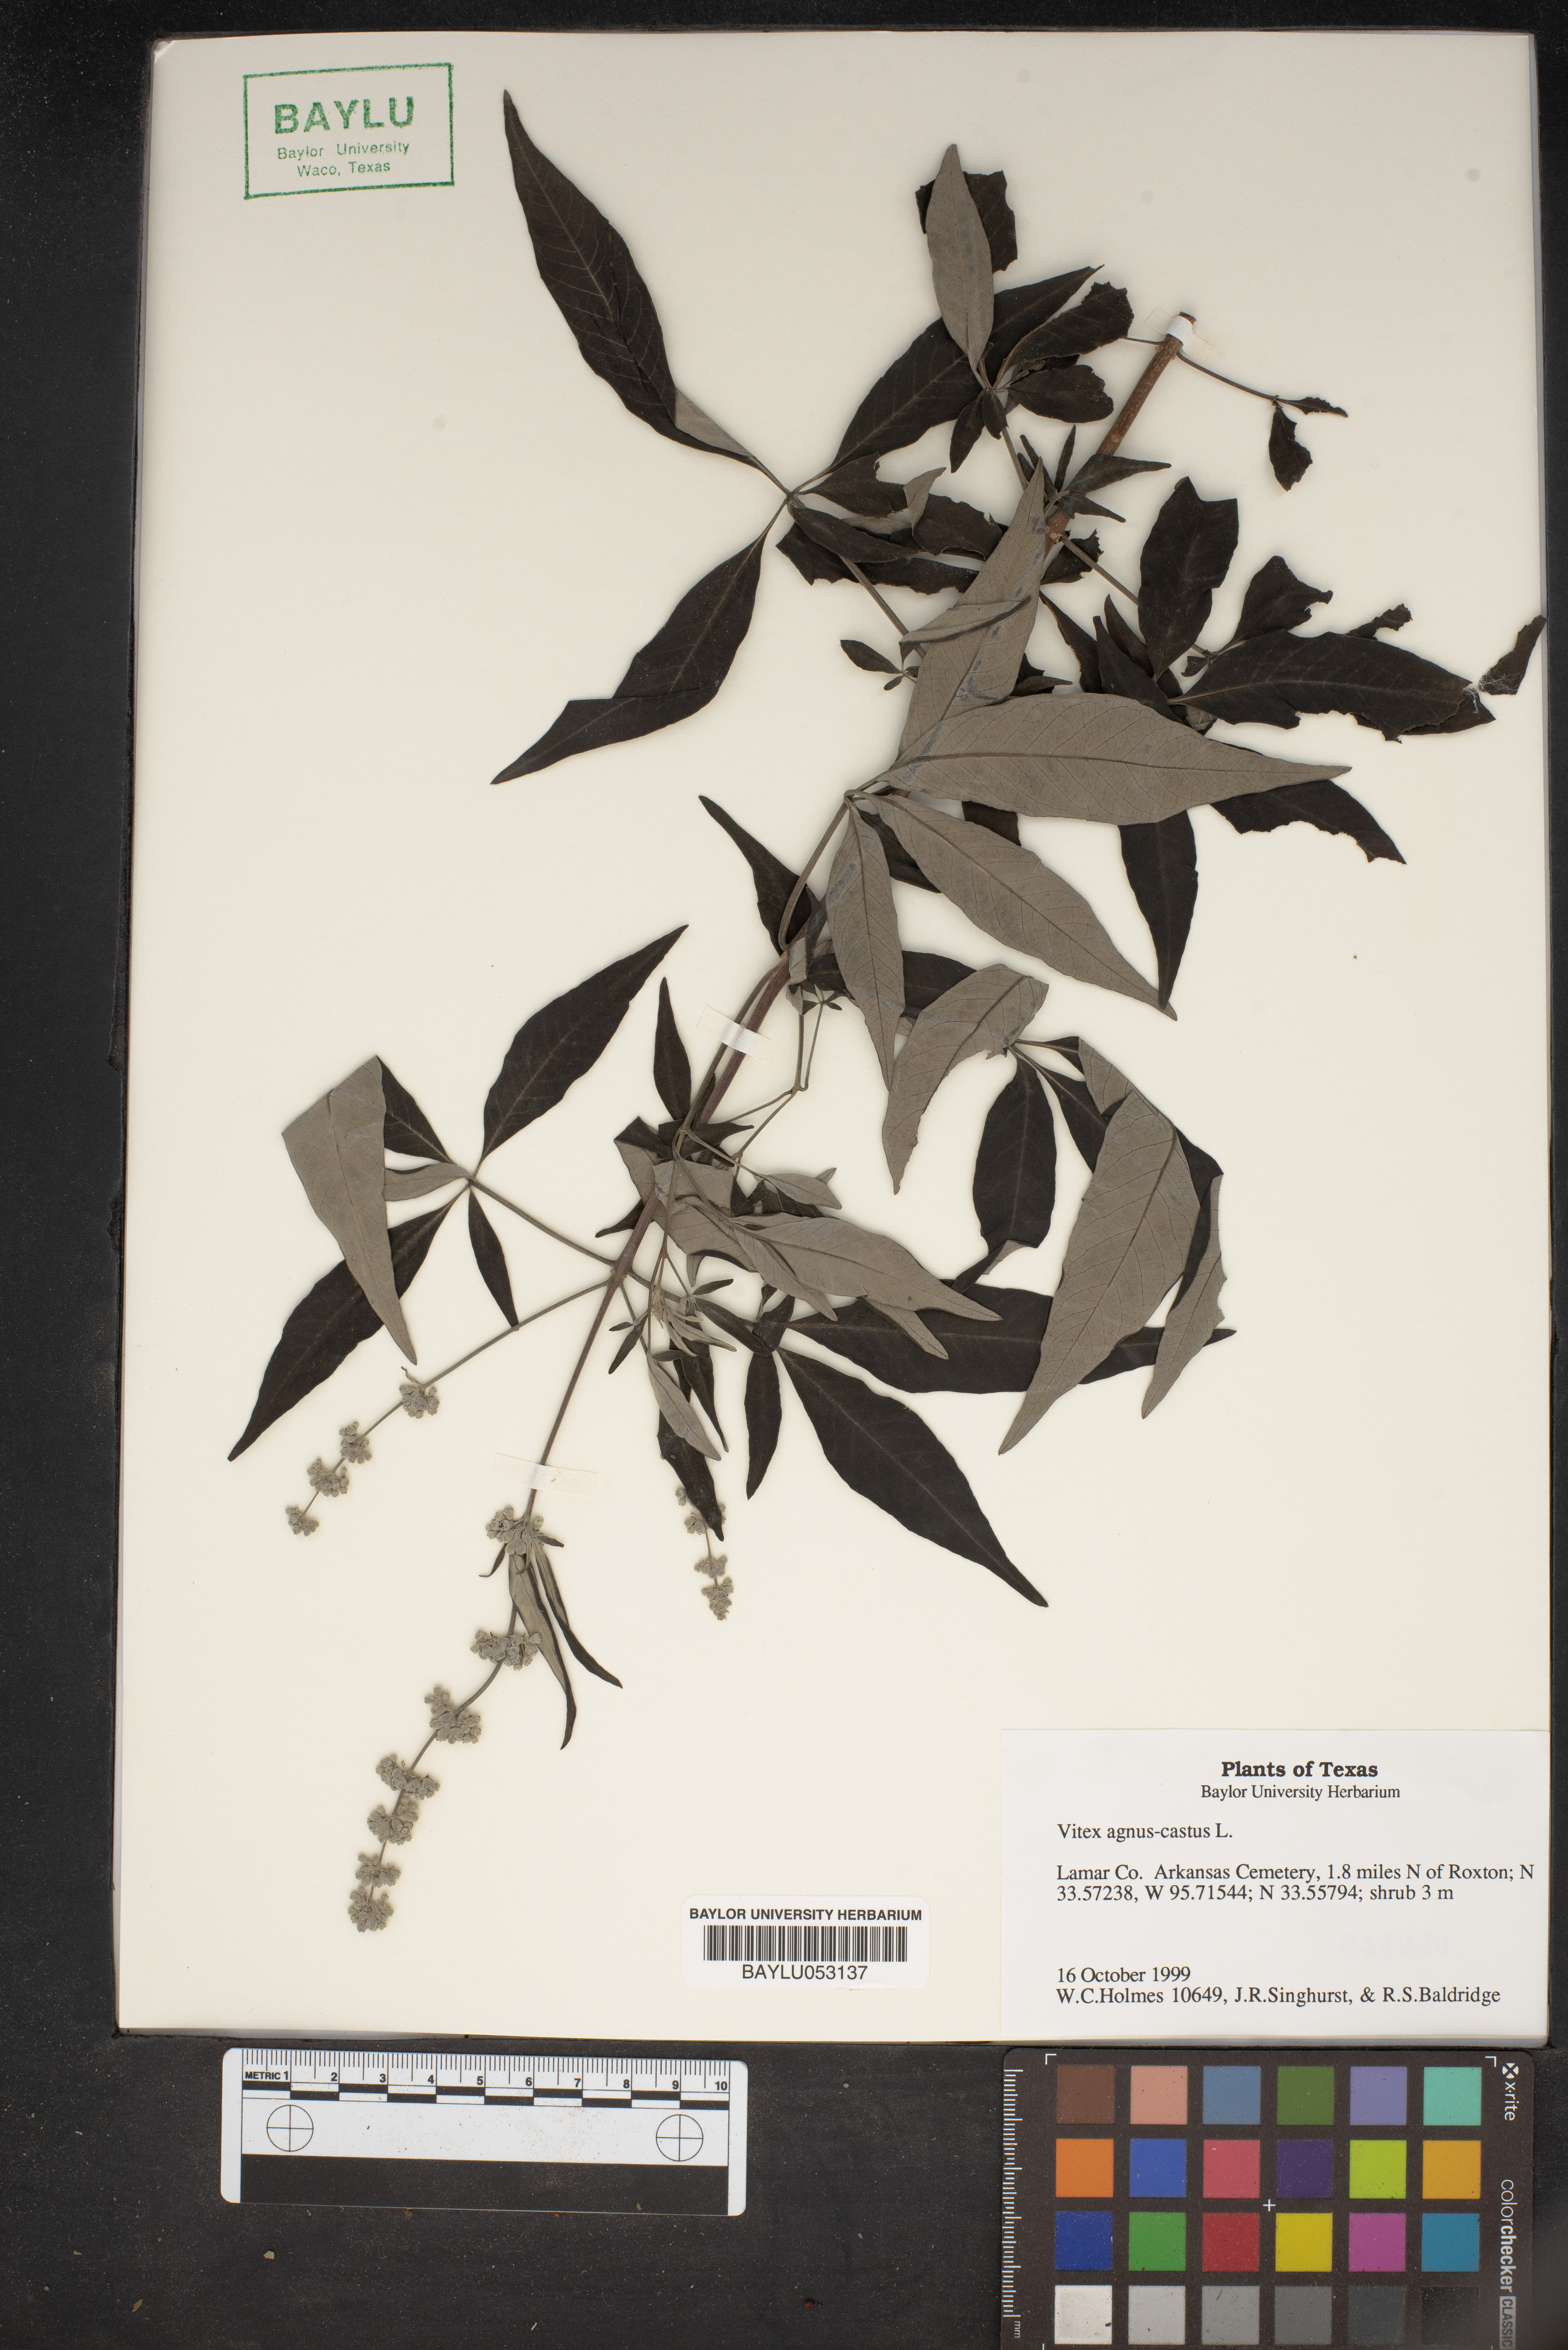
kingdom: Plantae
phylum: Tracheophyta
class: Magnoliopsida
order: Lamiales
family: Lamiaceae
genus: Vitex
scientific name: Vitex agnus-castus
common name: Chasteberry
